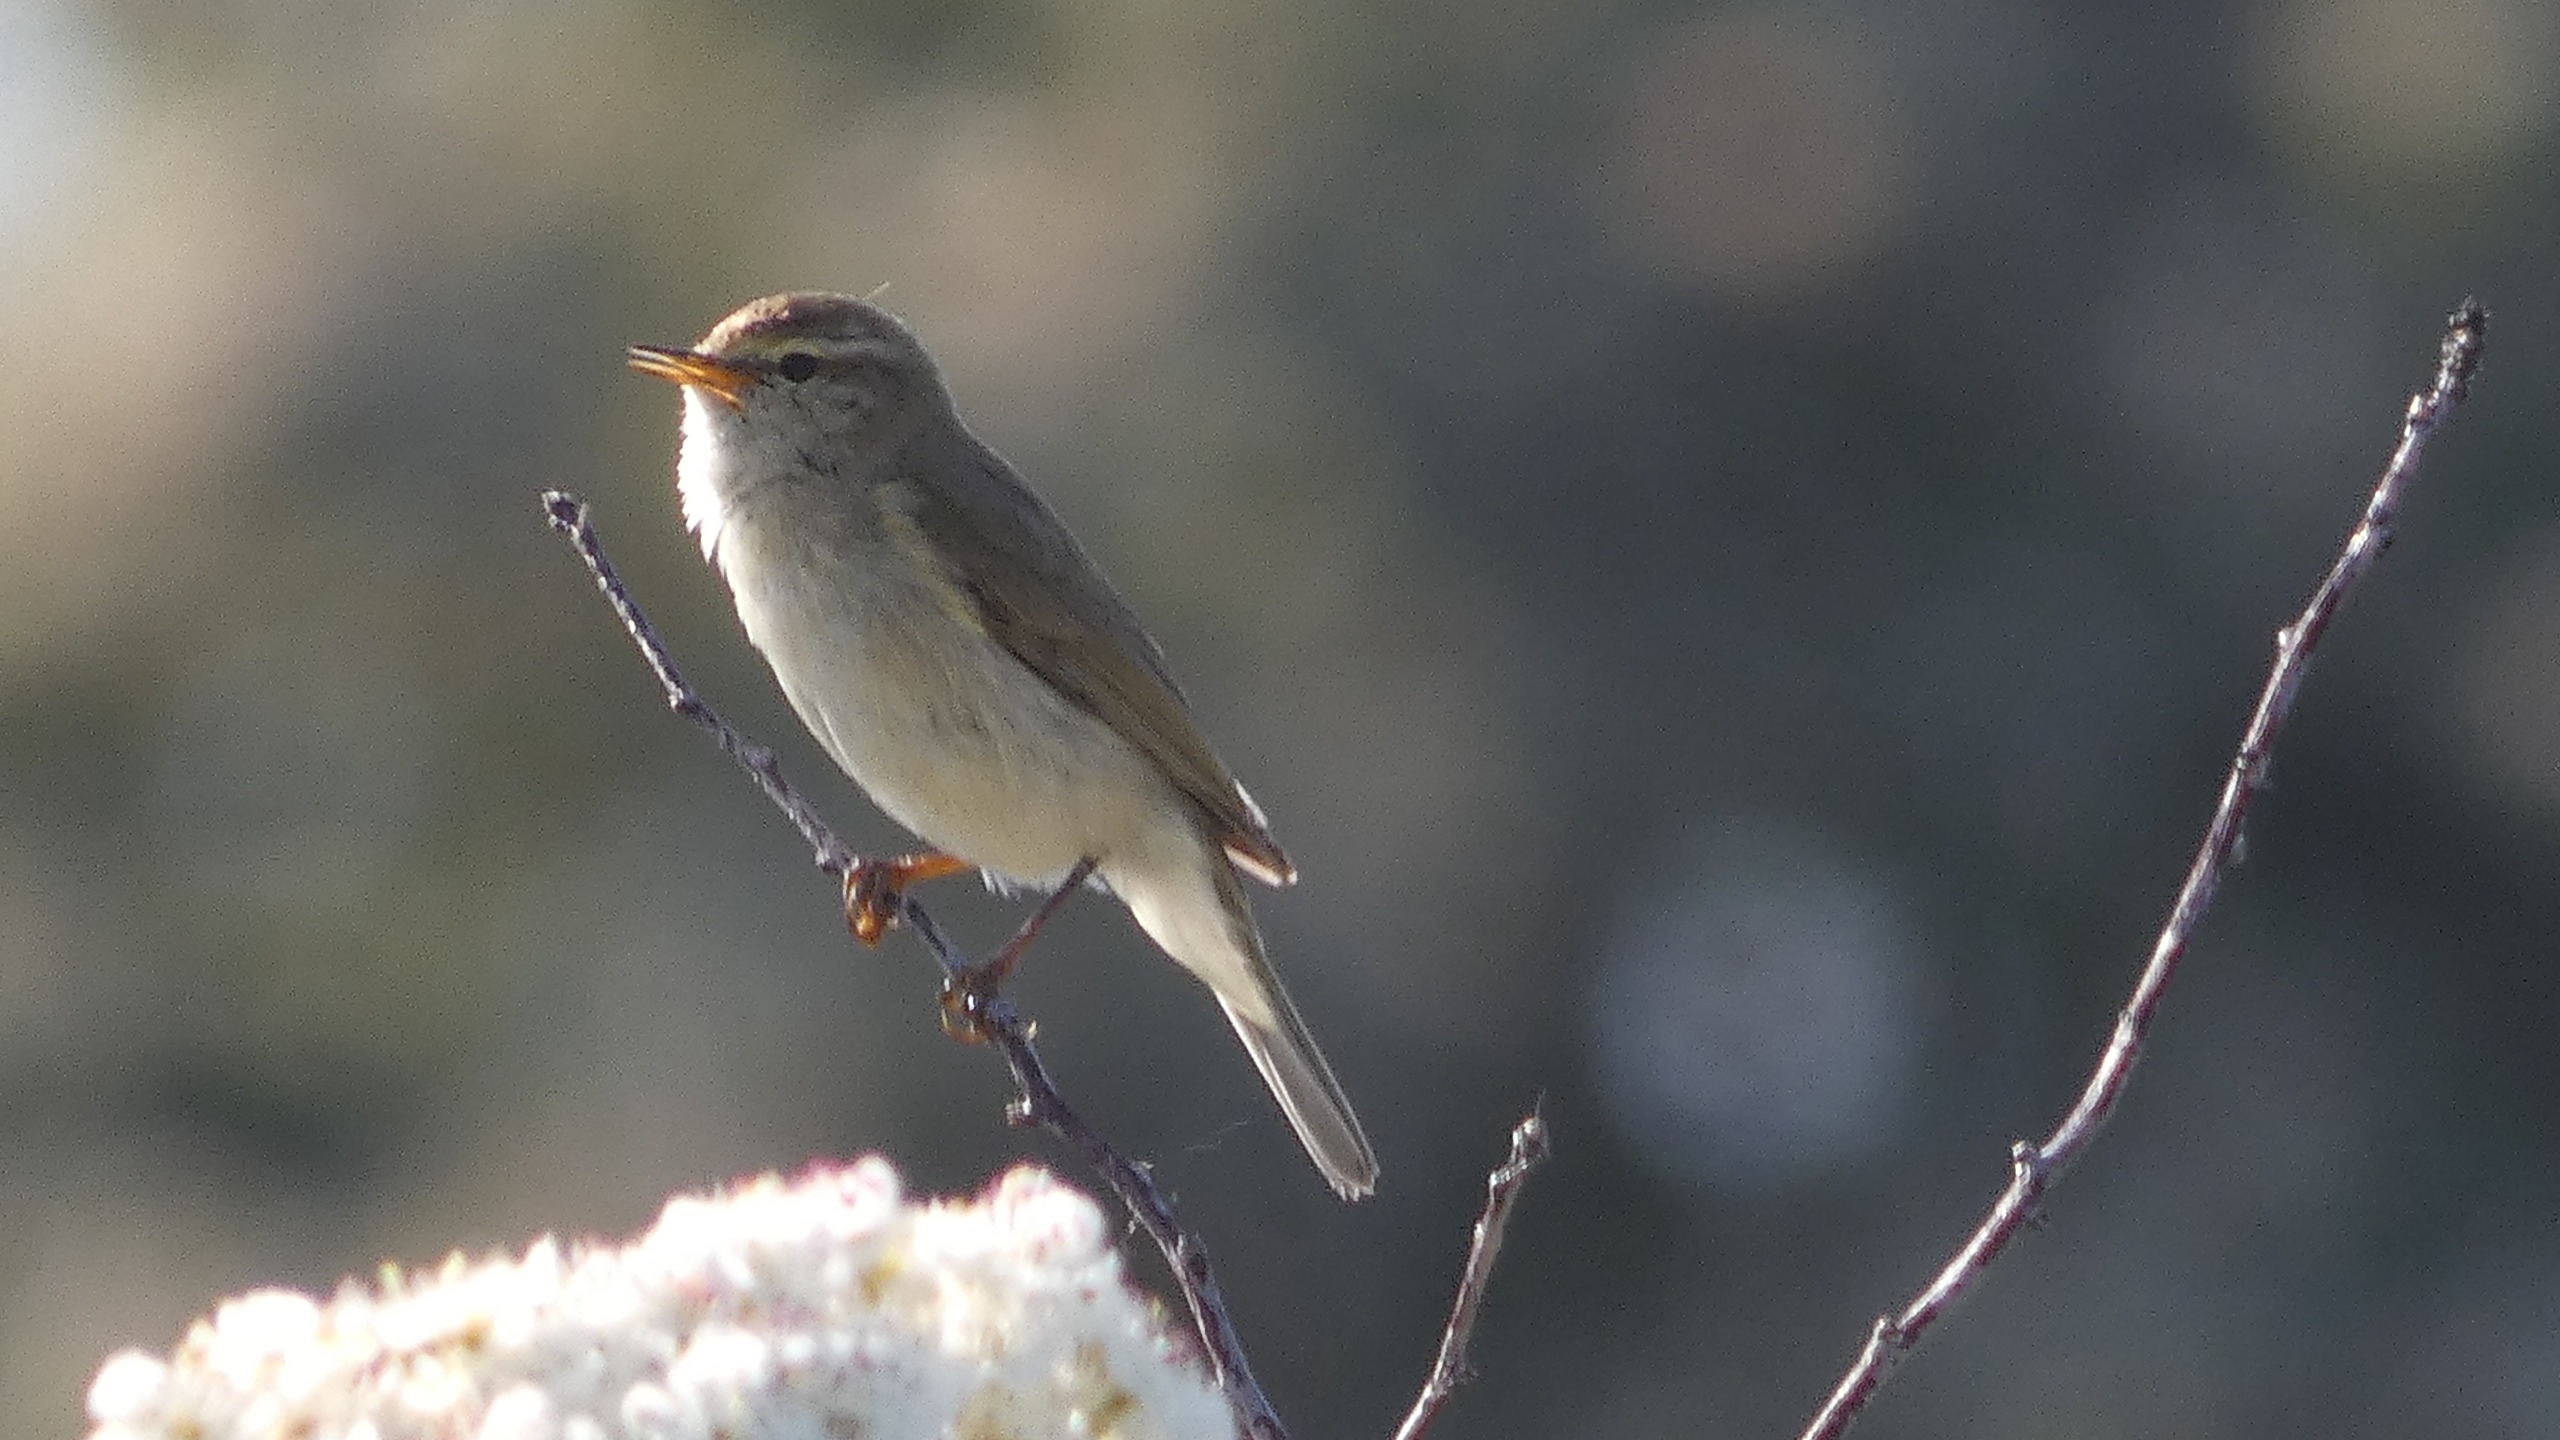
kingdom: Animalia
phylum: Chordata
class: Aves
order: Passeriformes
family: Phylloscopidae
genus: Phylloscopus
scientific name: Phylloscopus trochilus
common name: Løvsanger
